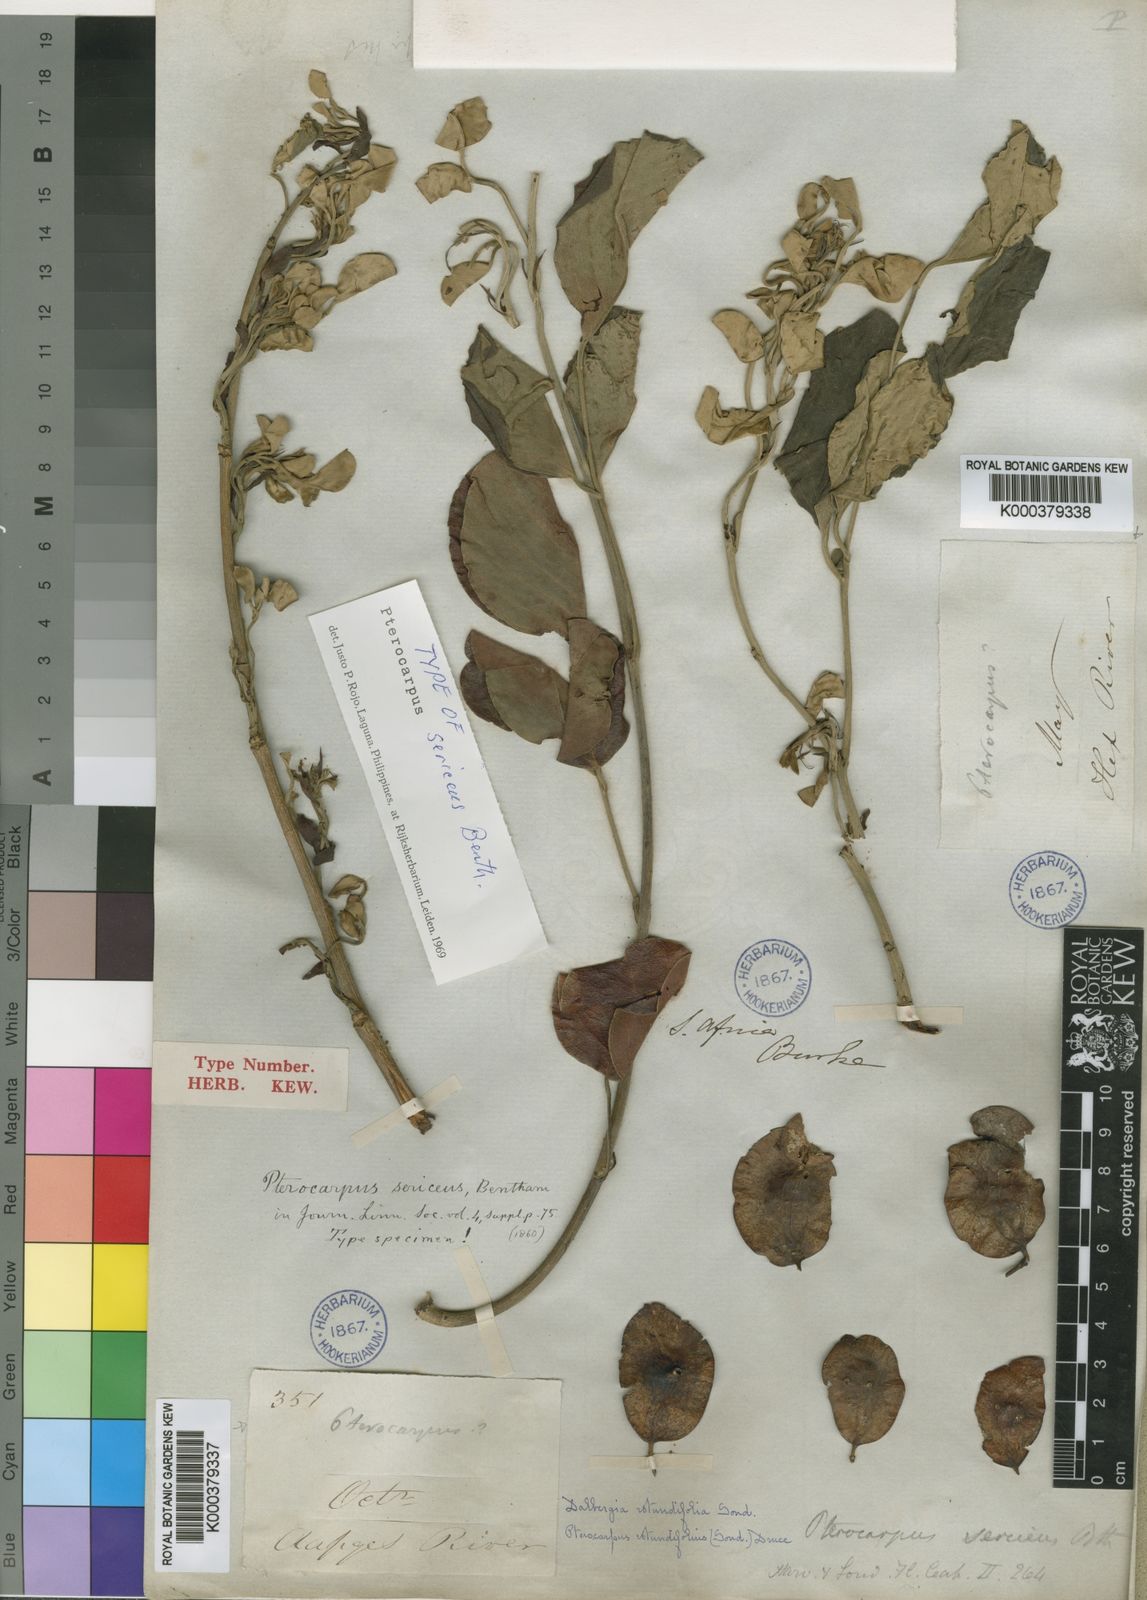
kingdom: Plantae
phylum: Tracheophyta
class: Magnoliopsida
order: Fabales
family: Fabaceae
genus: Pterocarpus
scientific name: Pterocarpus rotundifolius
